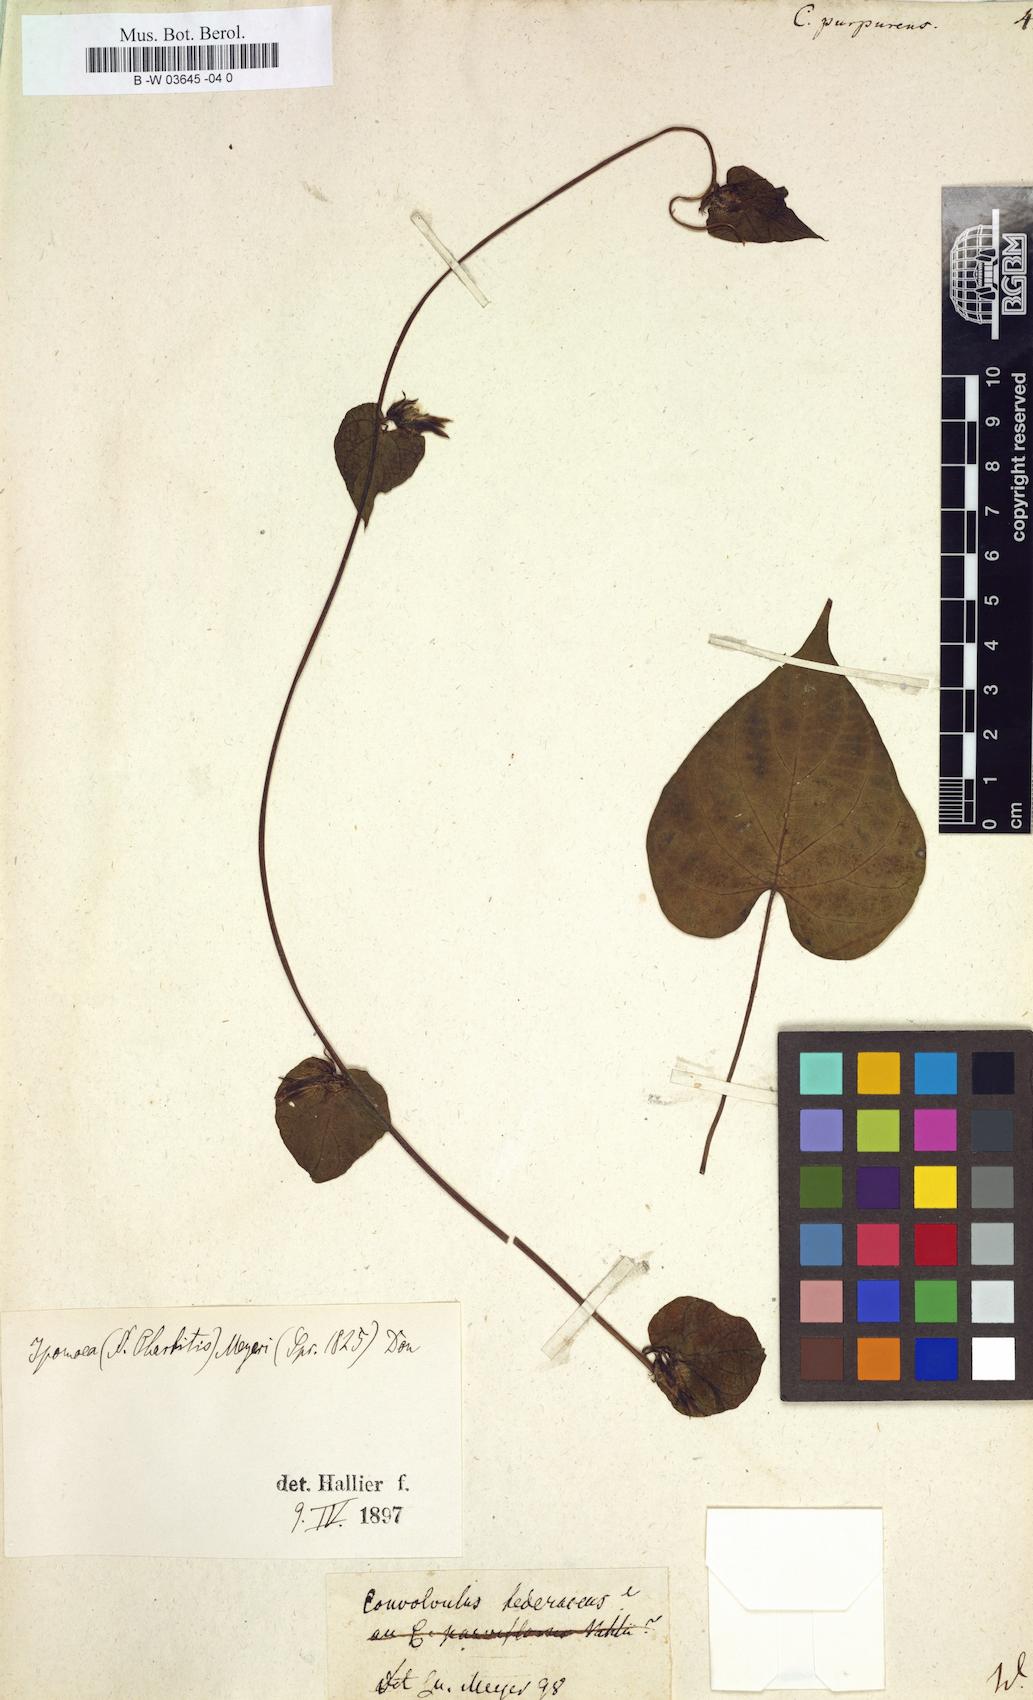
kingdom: Plantae
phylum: Tracheophyta
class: Magnoliopsida
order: Solanales
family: Convolvulaceae
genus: Ipomoea
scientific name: Ipomoea purpurea
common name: Common morning-glory
